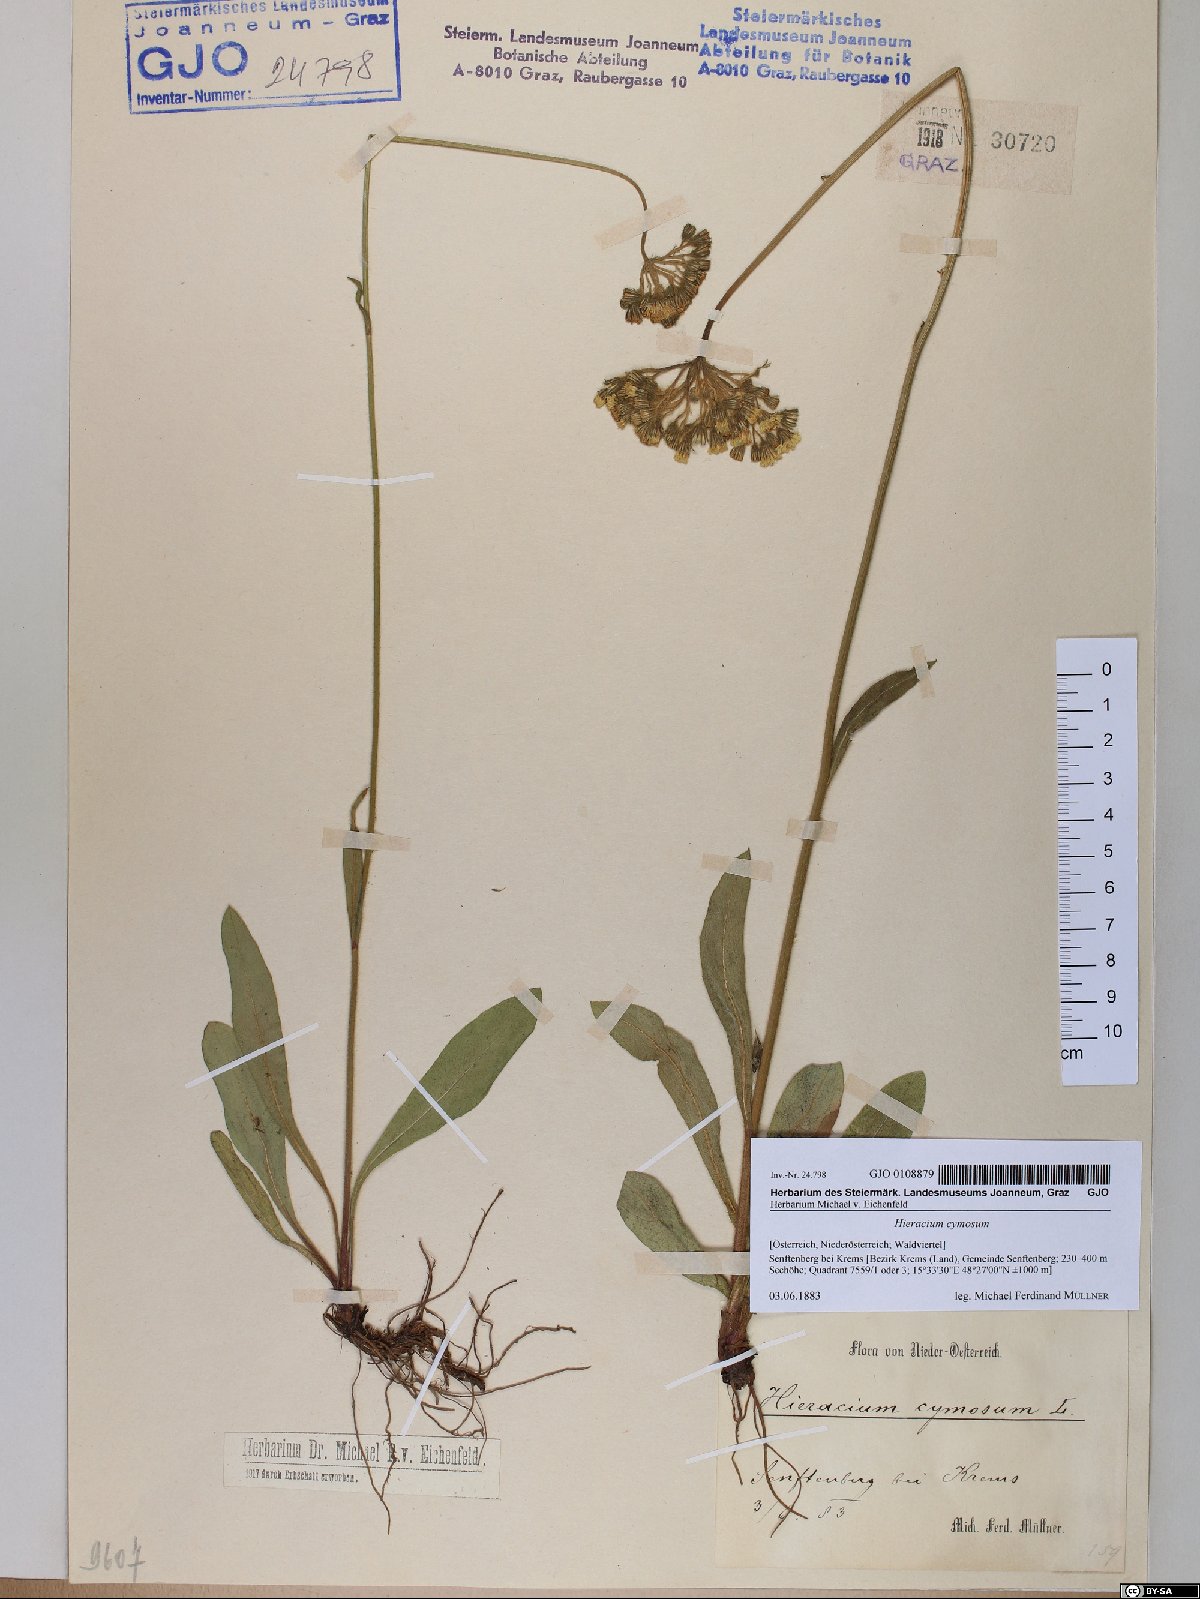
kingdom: Plantae
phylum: Tracheophyta
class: Magnoliopsida
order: Asterales
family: Asteraceae
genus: Pilosella
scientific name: Pilosella cymosa
